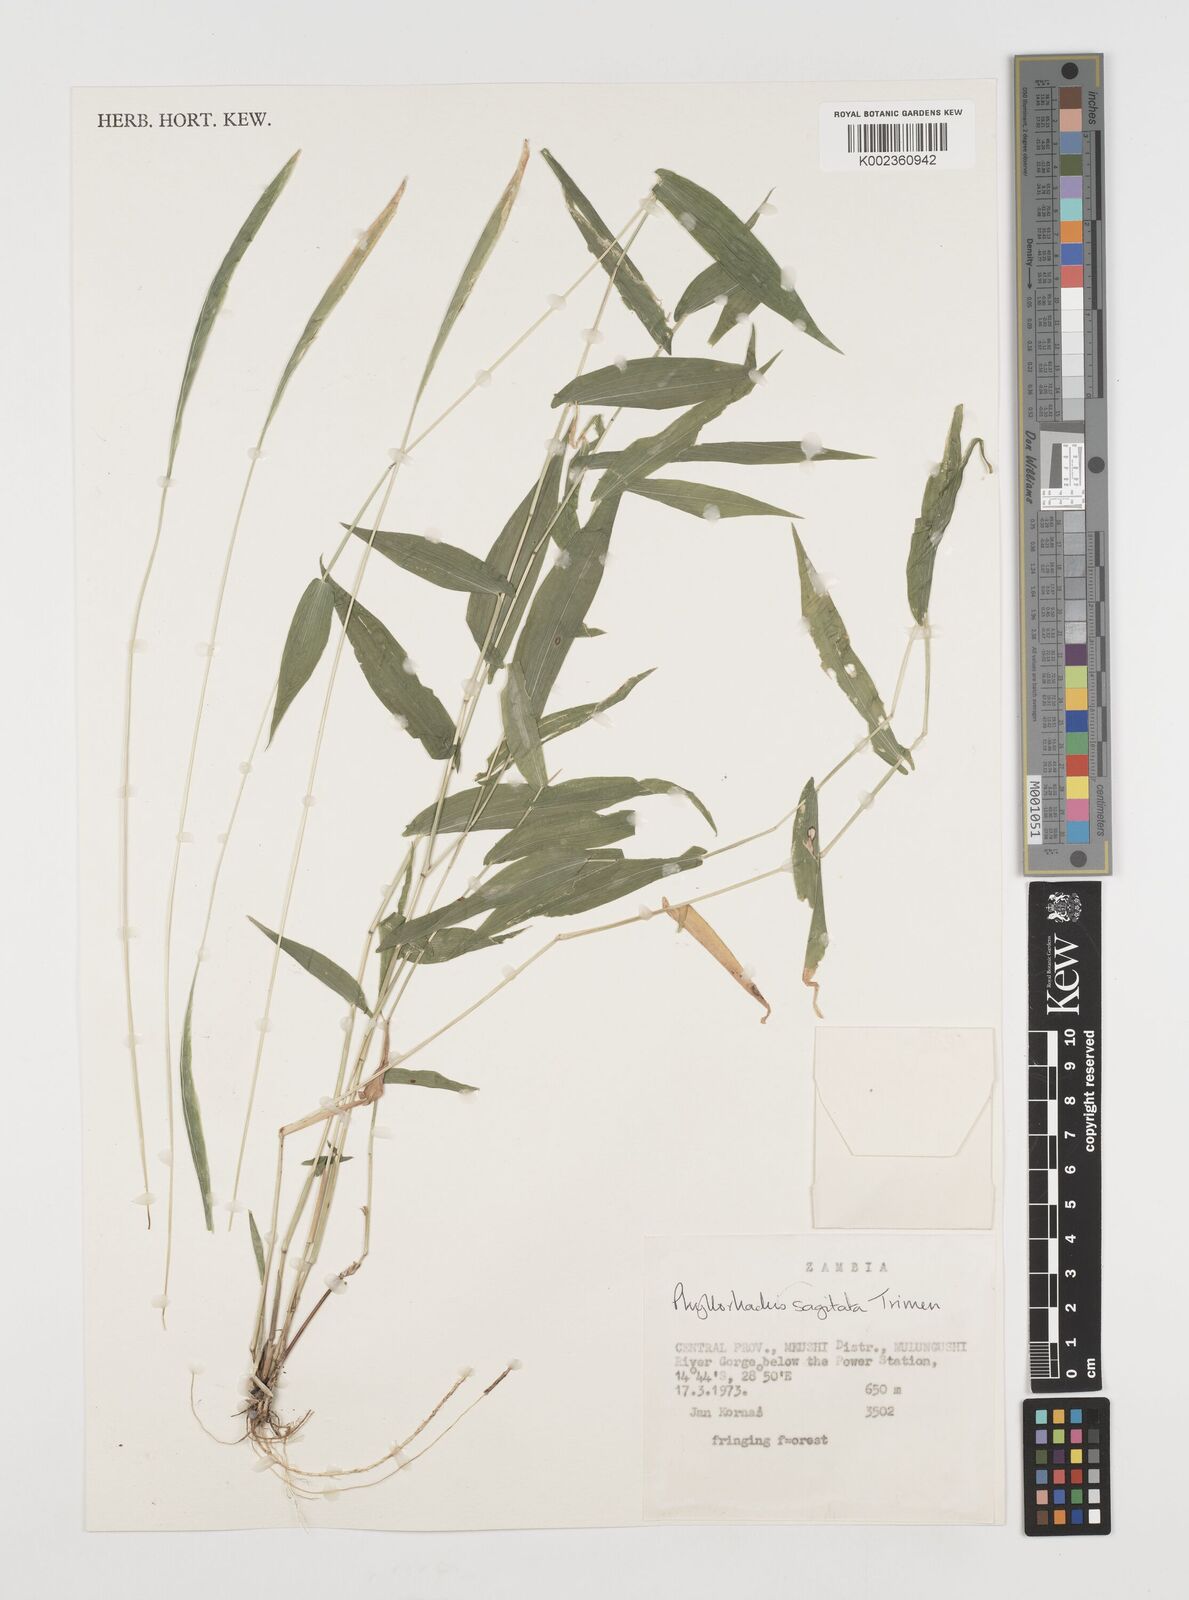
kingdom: Plantae
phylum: Tracheophyta
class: Liliopsida
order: Poales
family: Poaceae
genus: Phyllorachis
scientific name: Phyllorachis sagittata
